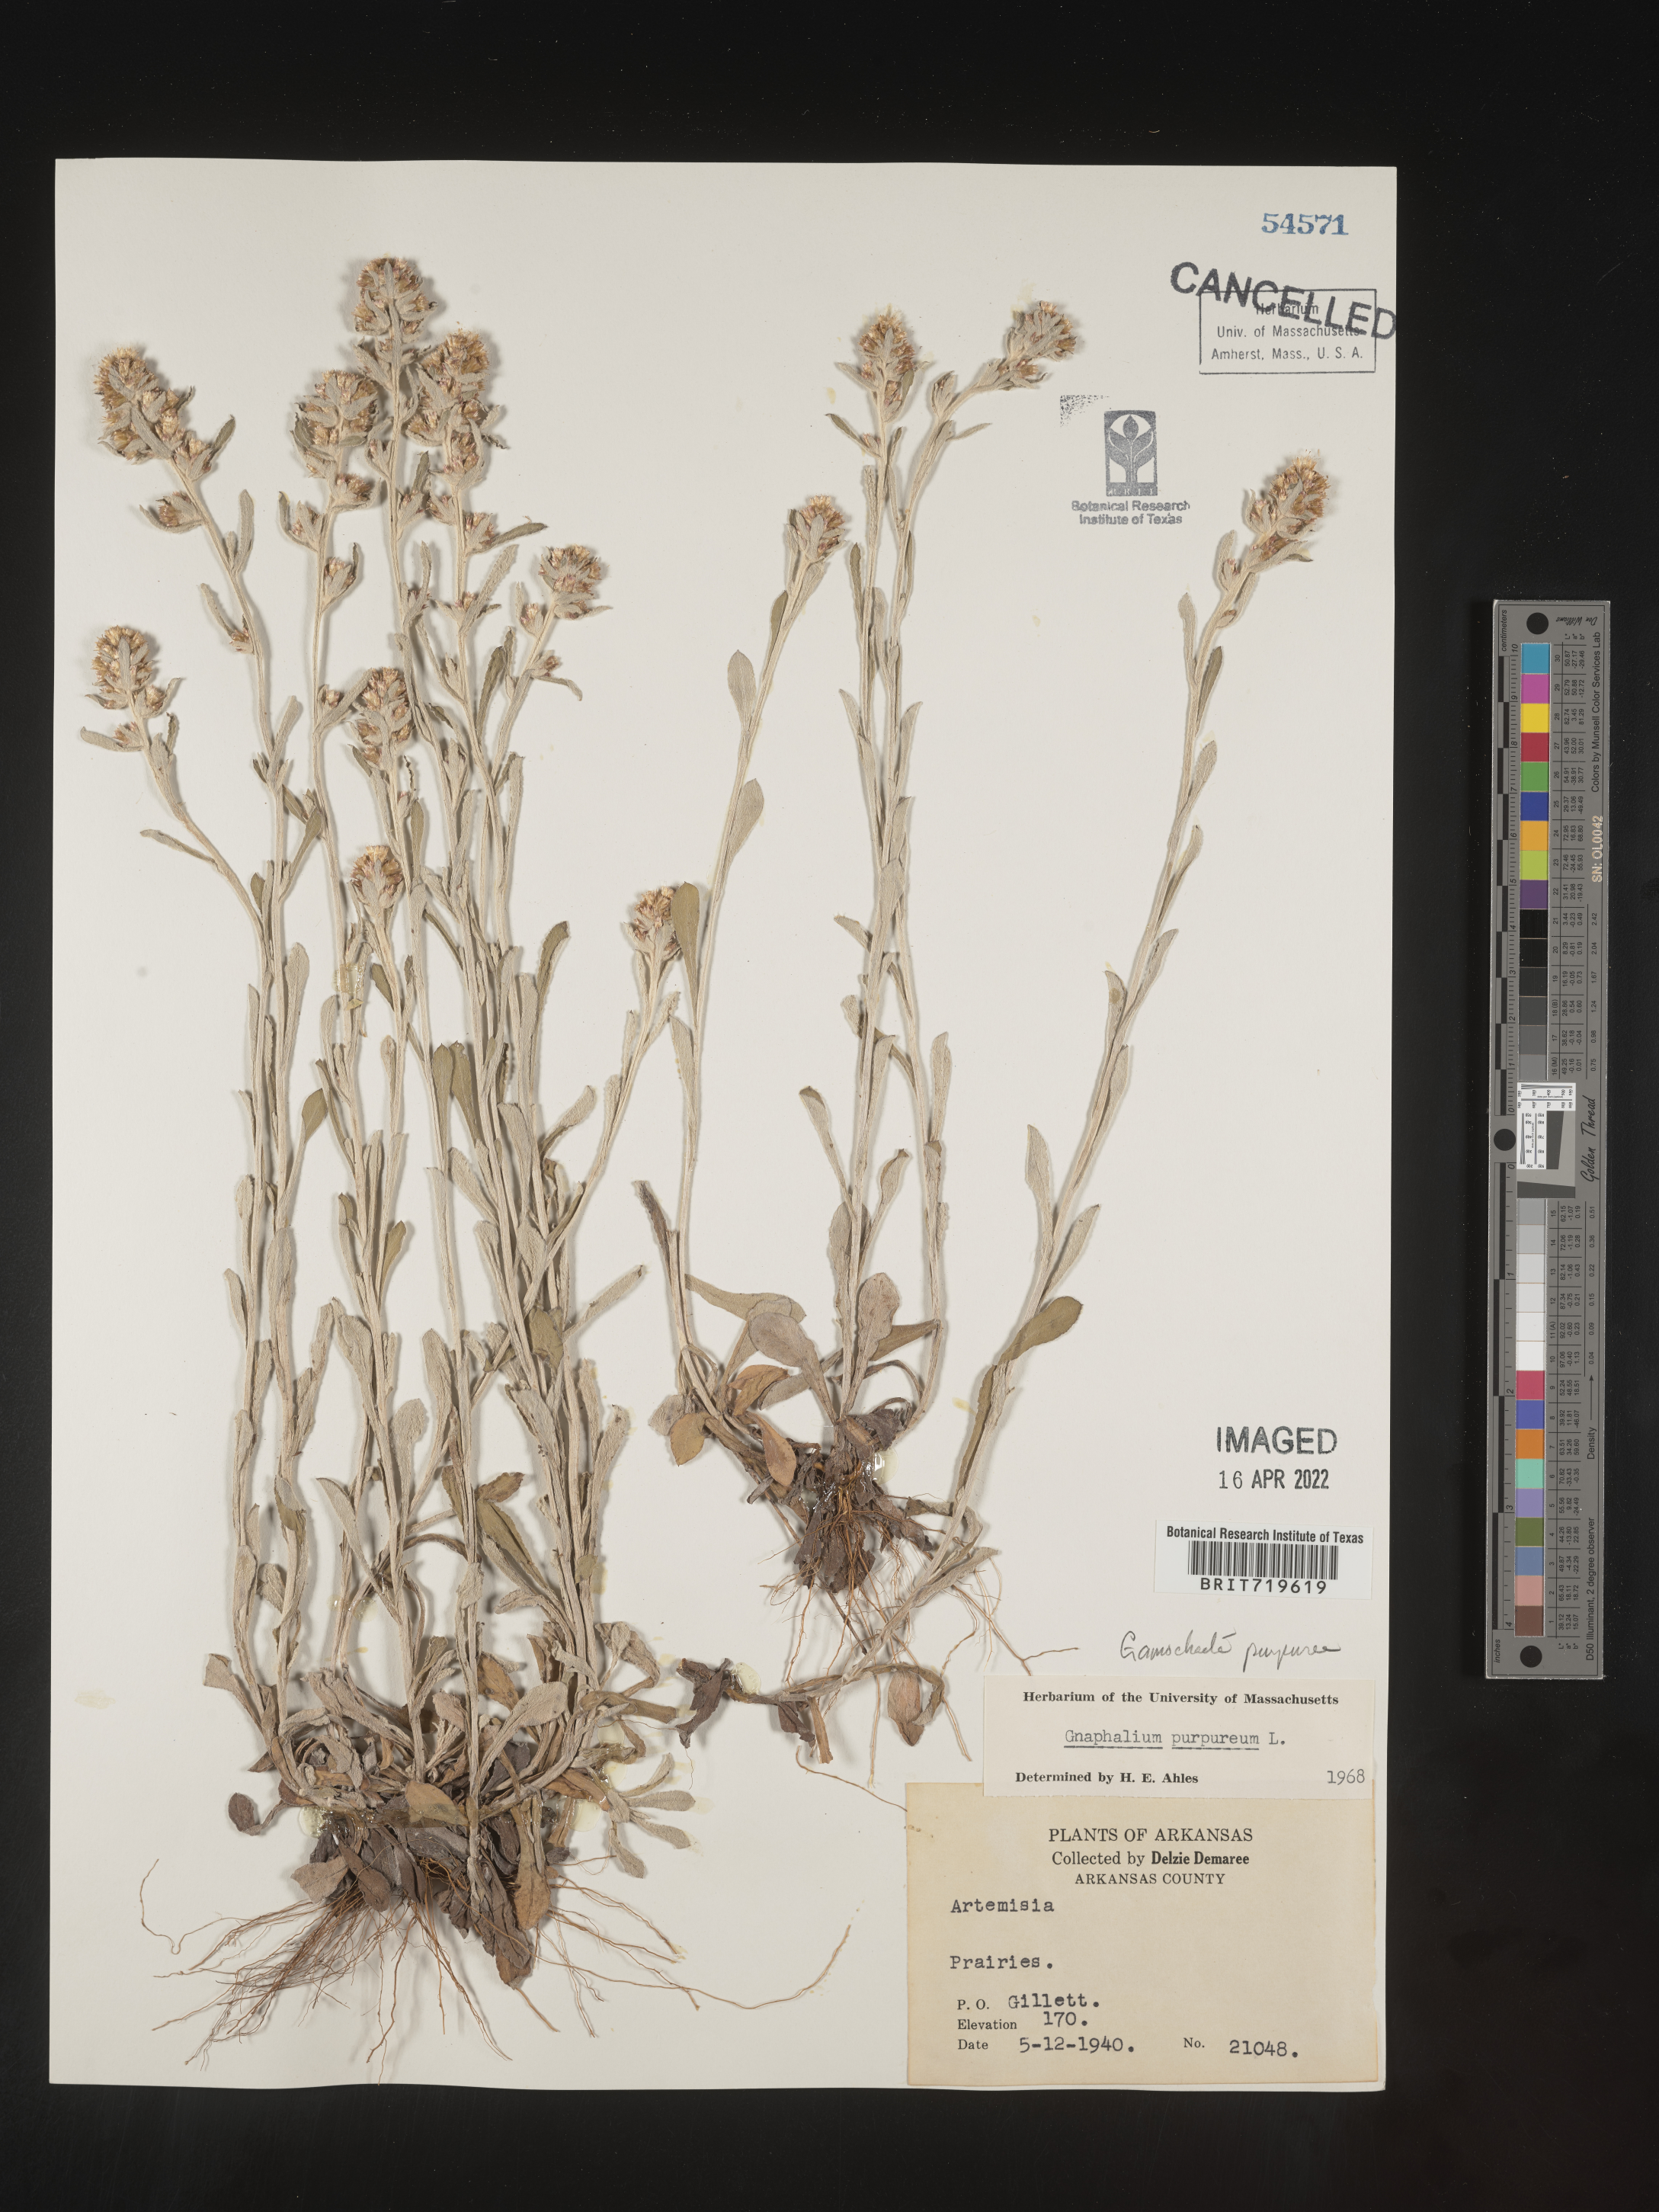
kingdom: Plantae
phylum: Tracheophyta
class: Magnoliopsida
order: Asterales
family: Asteraceae
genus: Gamochaeta
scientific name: Gamochaeta purpurea
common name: Purple cudweed
